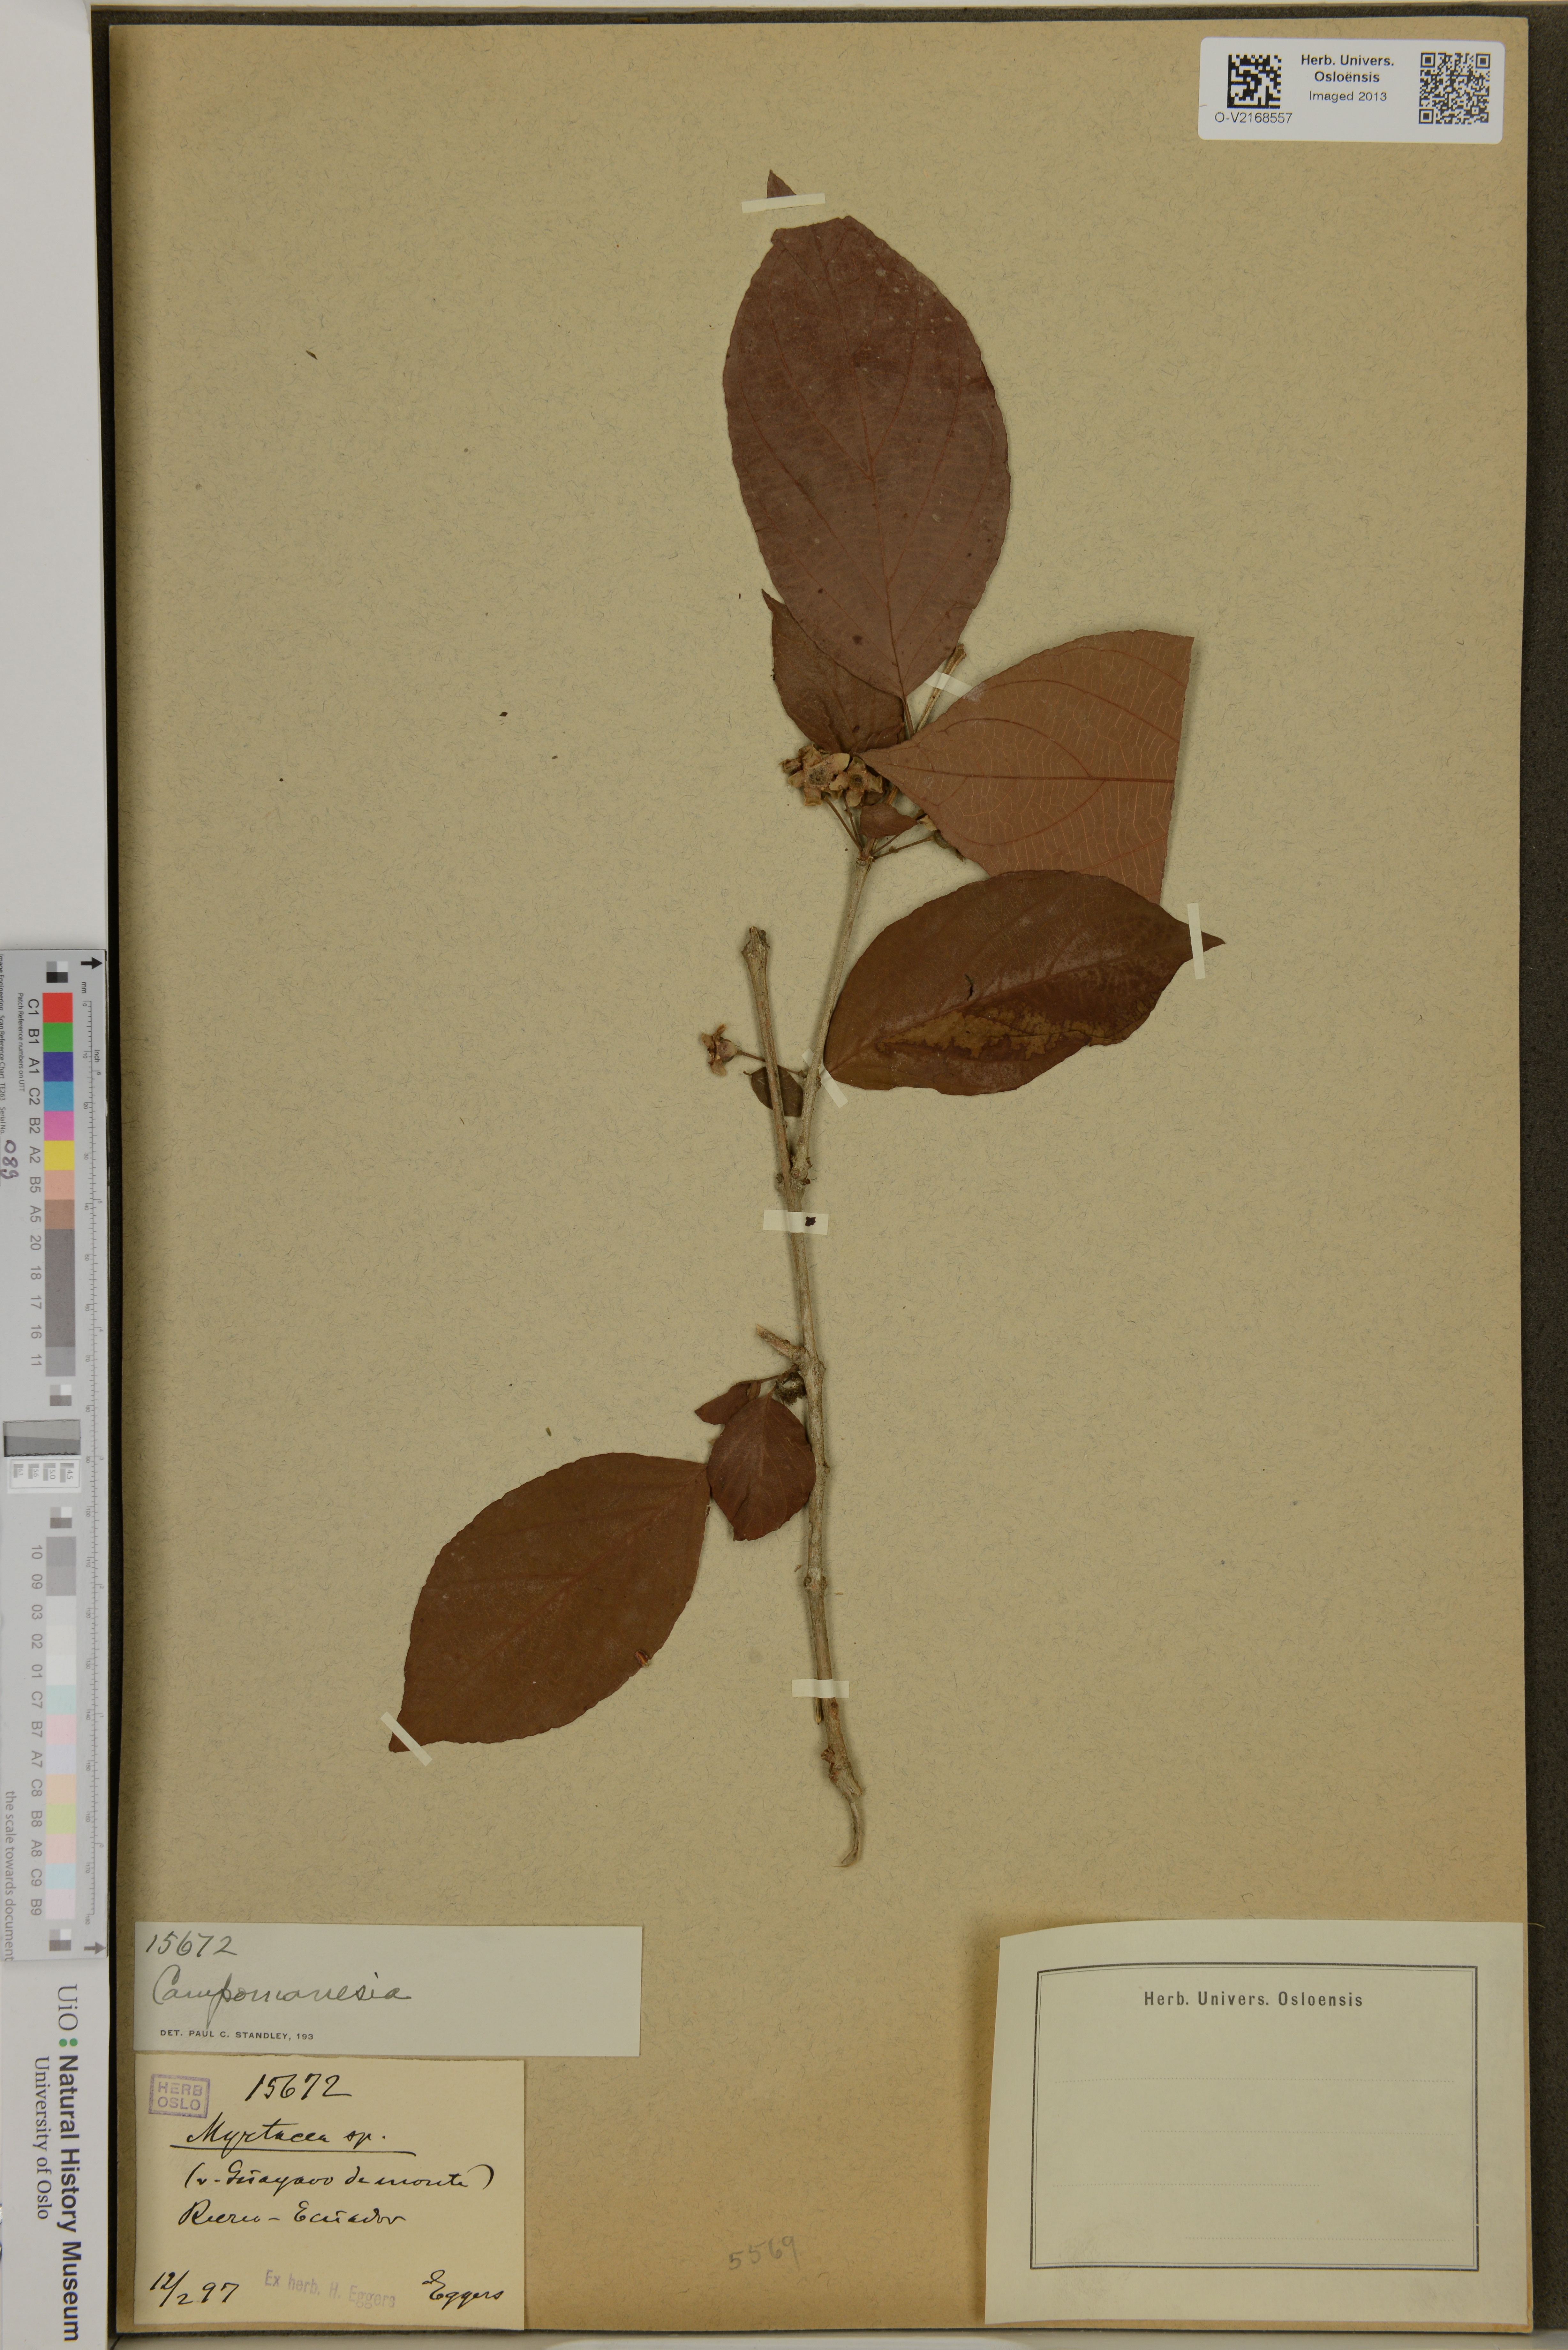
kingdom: Plantae
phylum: Tracheophyta
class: Magnoliopsida
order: Myrtales
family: Myrtaceae
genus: Campomanesia
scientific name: Campomanesia
